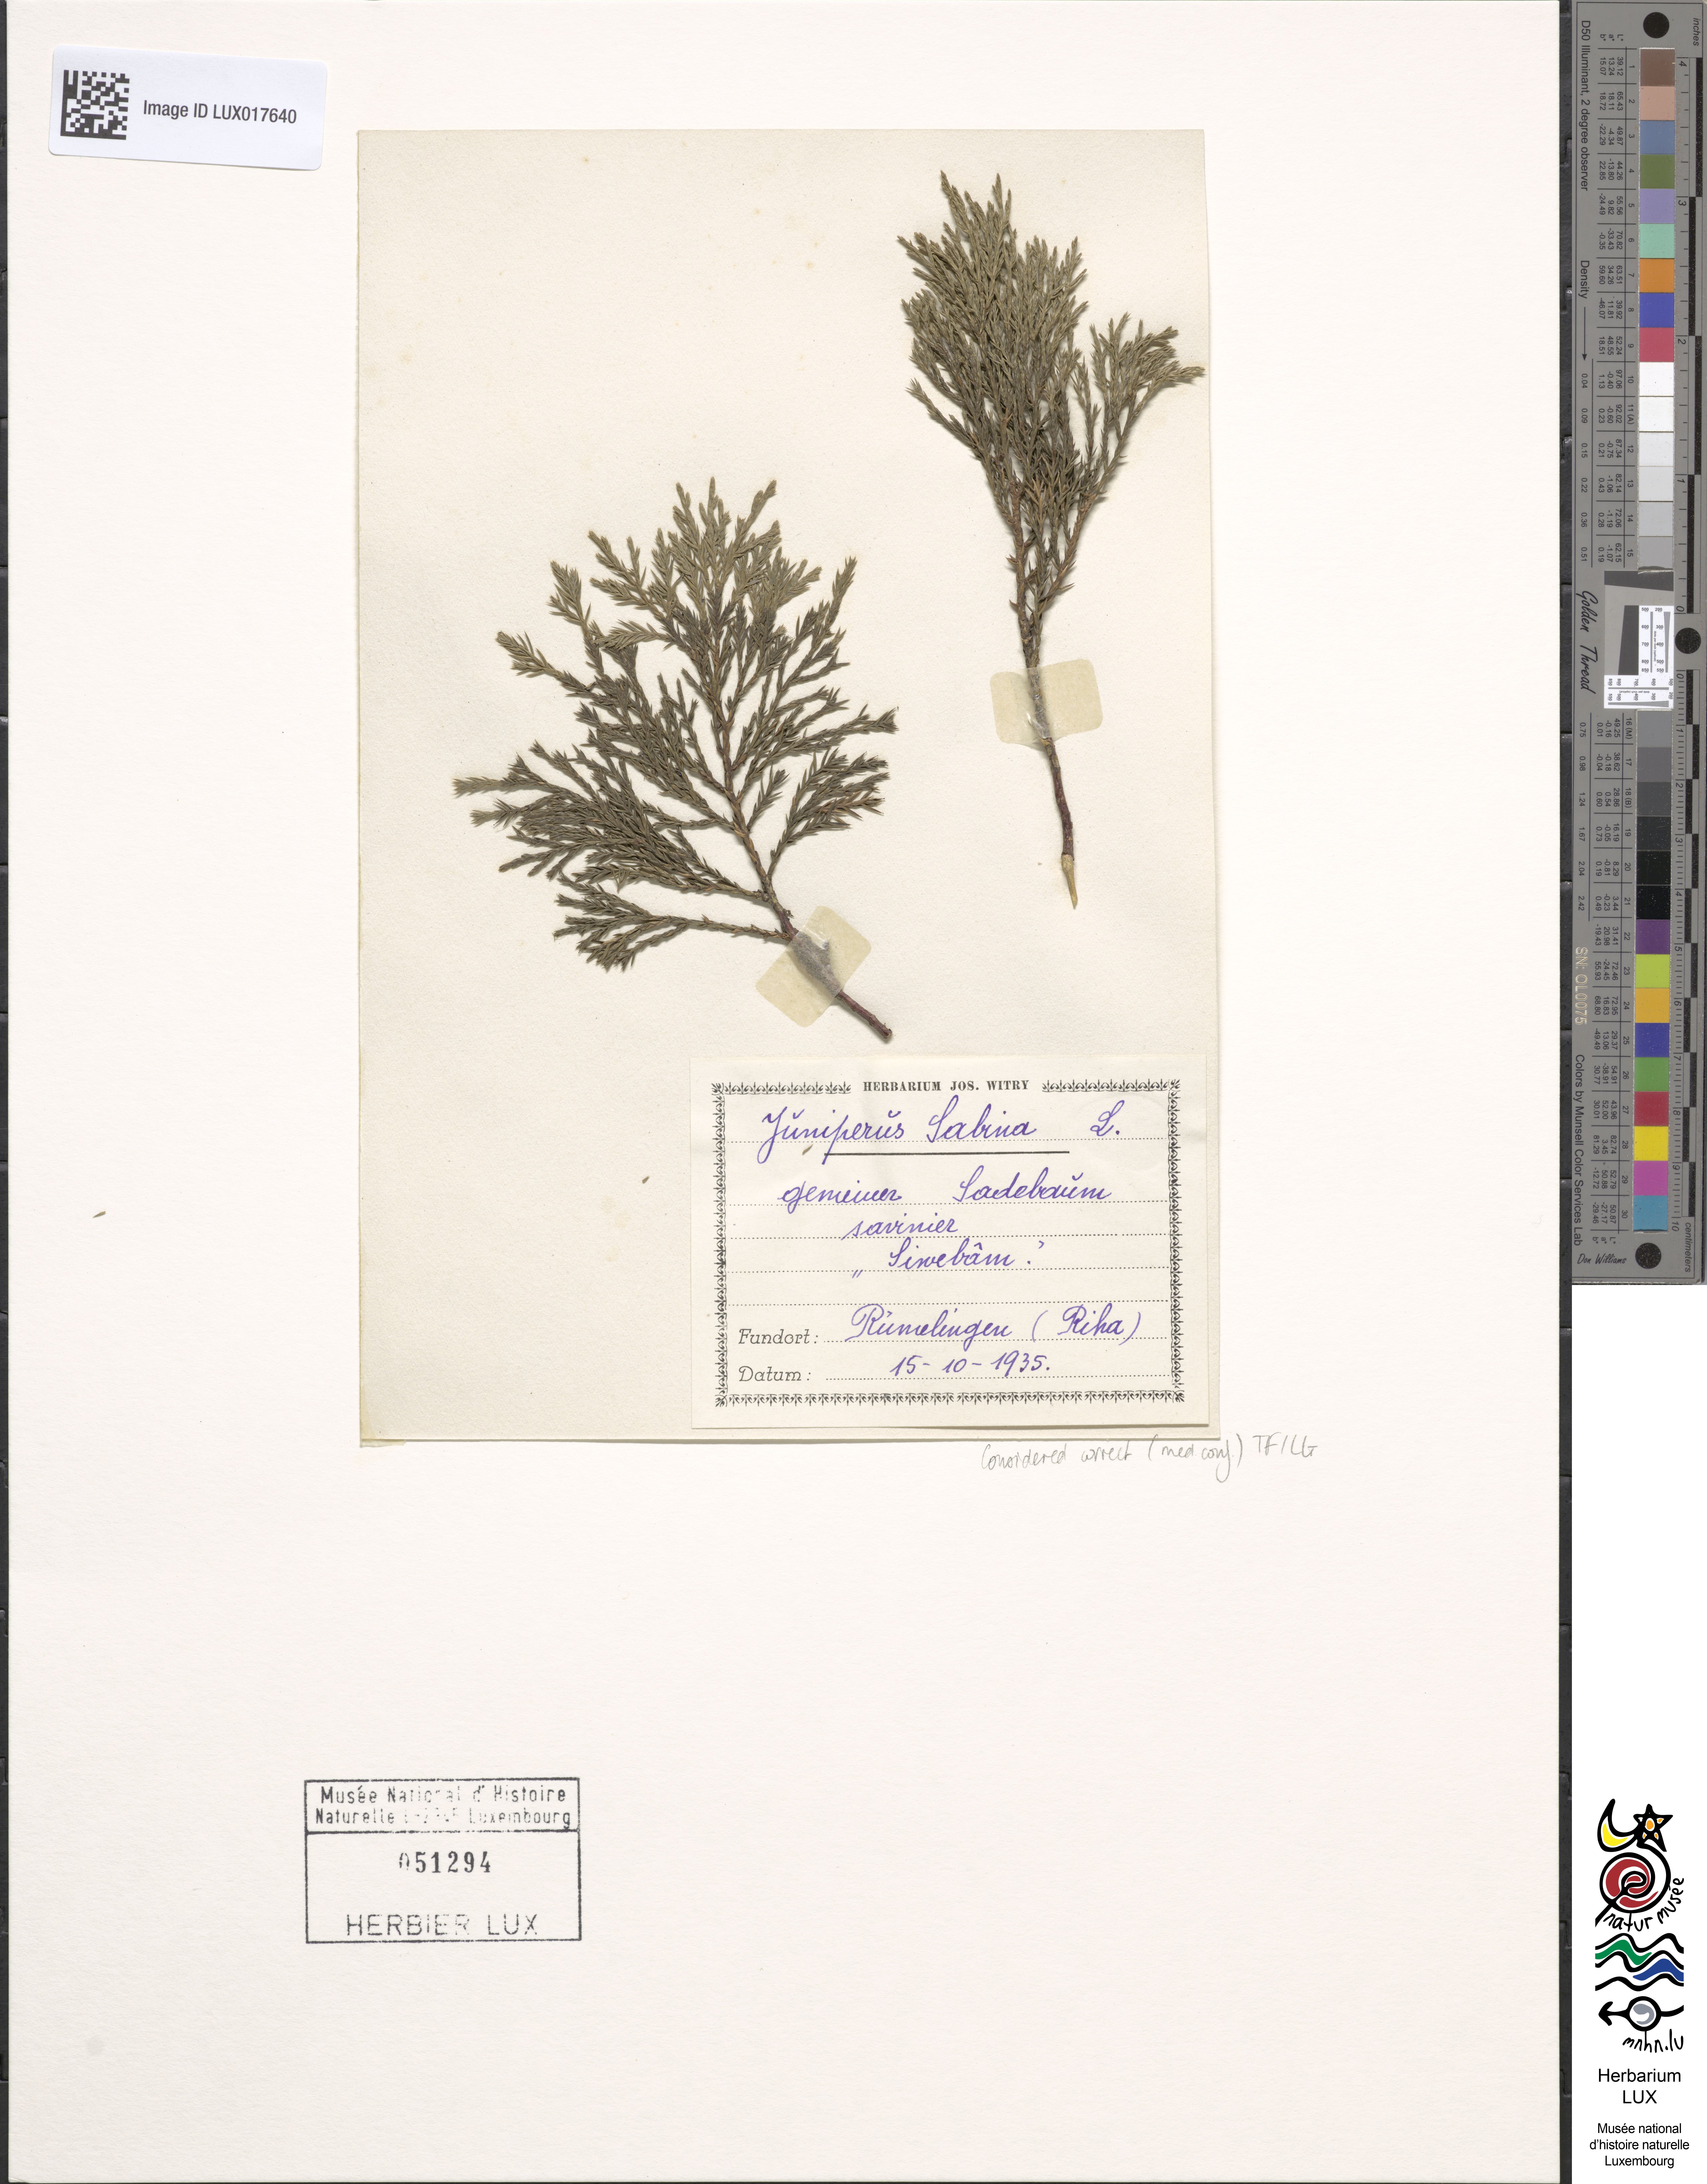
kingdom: Plantae
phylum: Tracheophyta
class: Pinopsida
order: Pinales
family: Cupressaceae
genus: Juniperus
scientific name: Juniperus sabina
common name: Savin
